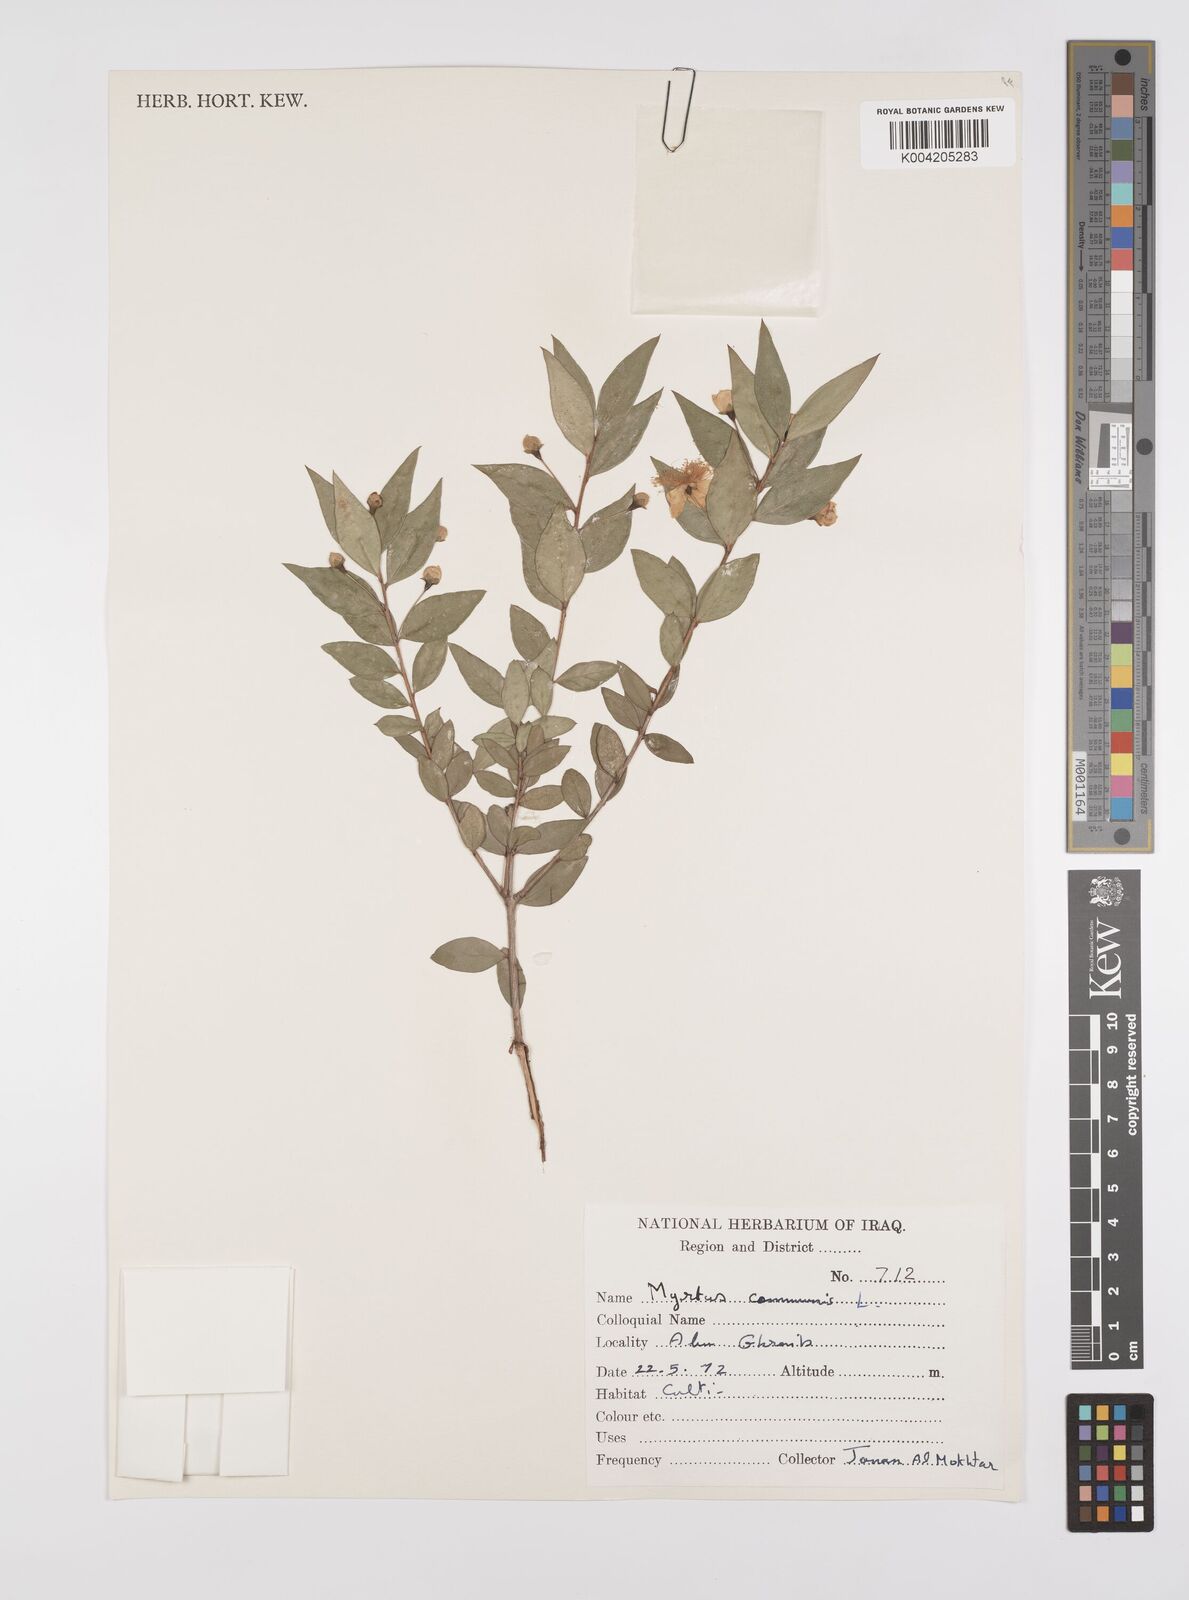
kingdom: Plantae
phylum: Tracheophyta
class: Magnoliopsida
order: Myrtales
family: Myrtaceae
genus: Myrtus
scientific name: Myrtus communis
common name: Myrtle
